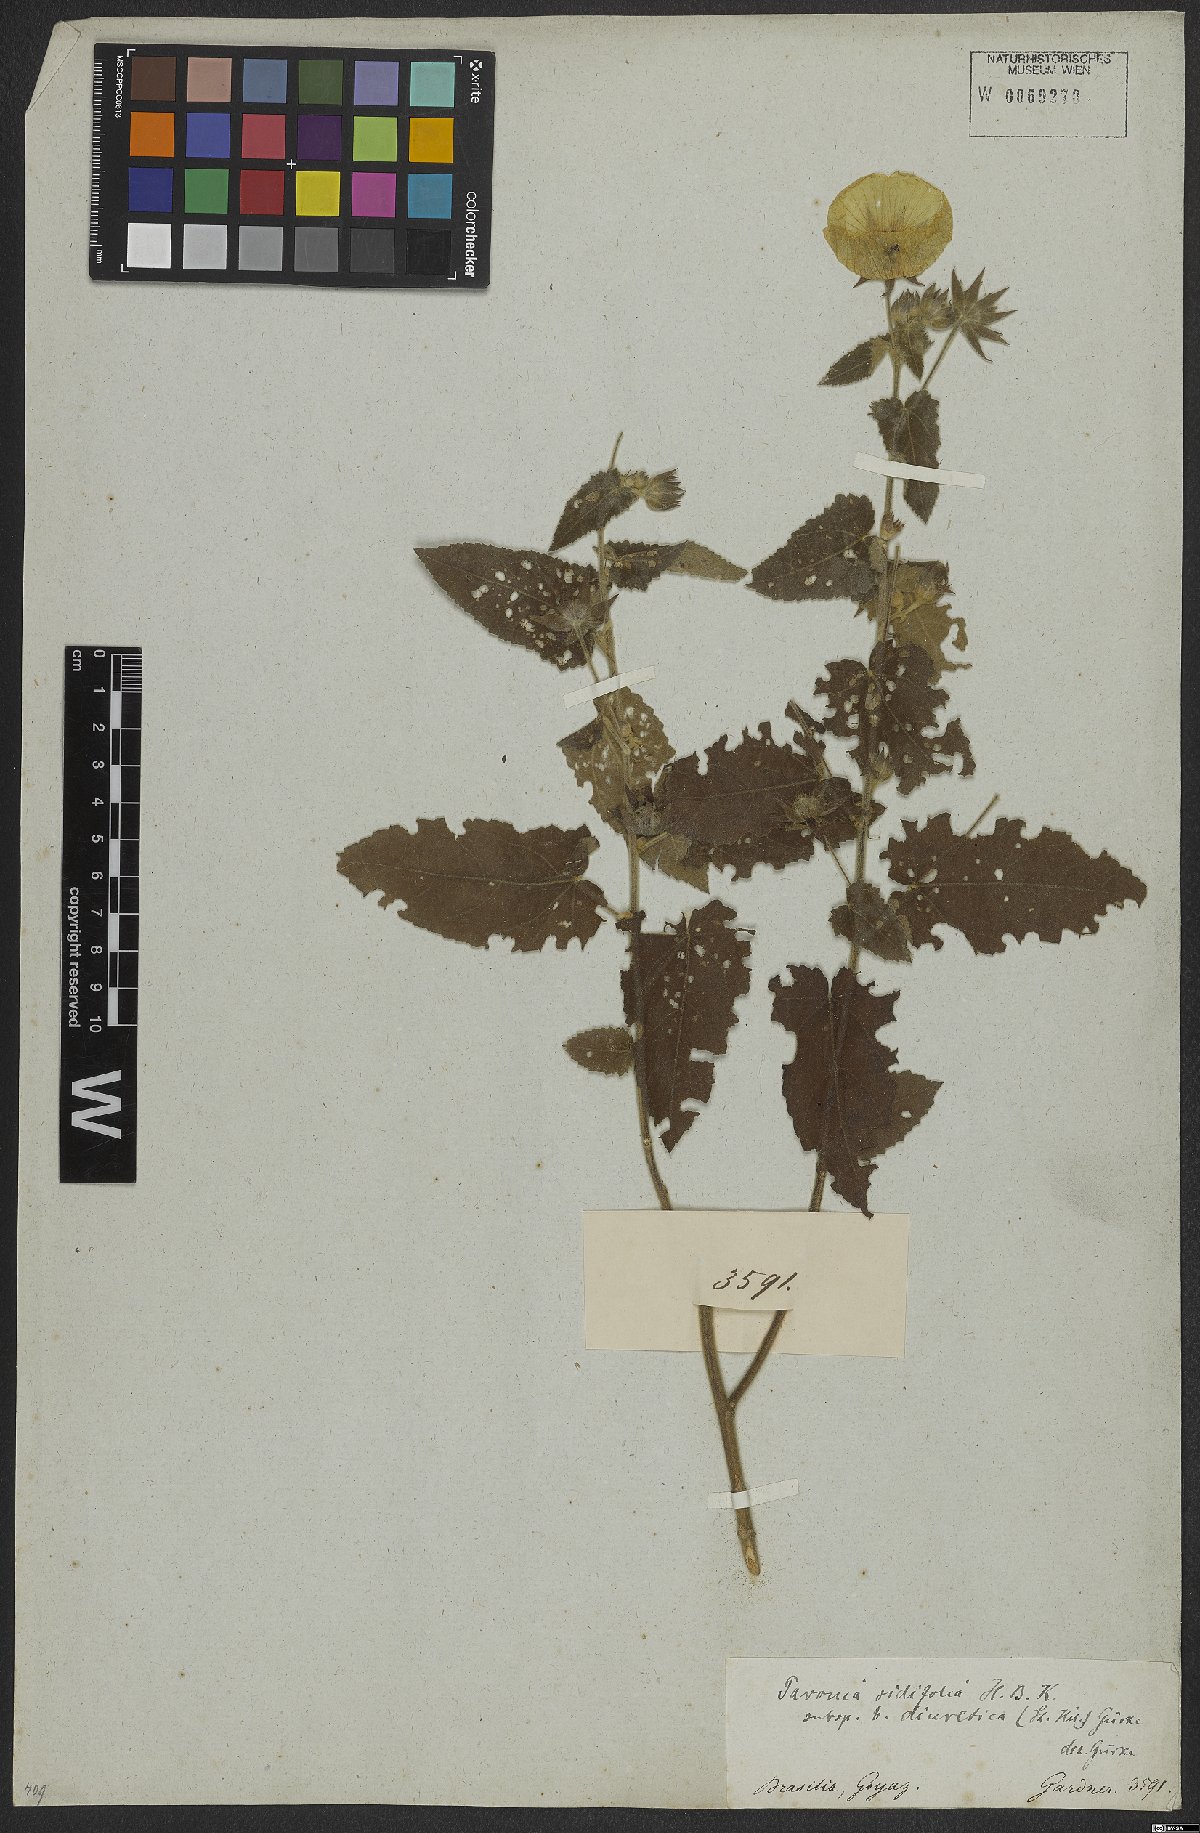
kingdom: Plantae
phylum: Tracheophyta
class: Magnoliopsida
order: Malvales
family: Malvaceae
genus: Pavonia
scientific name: Pavonia sidifolia
